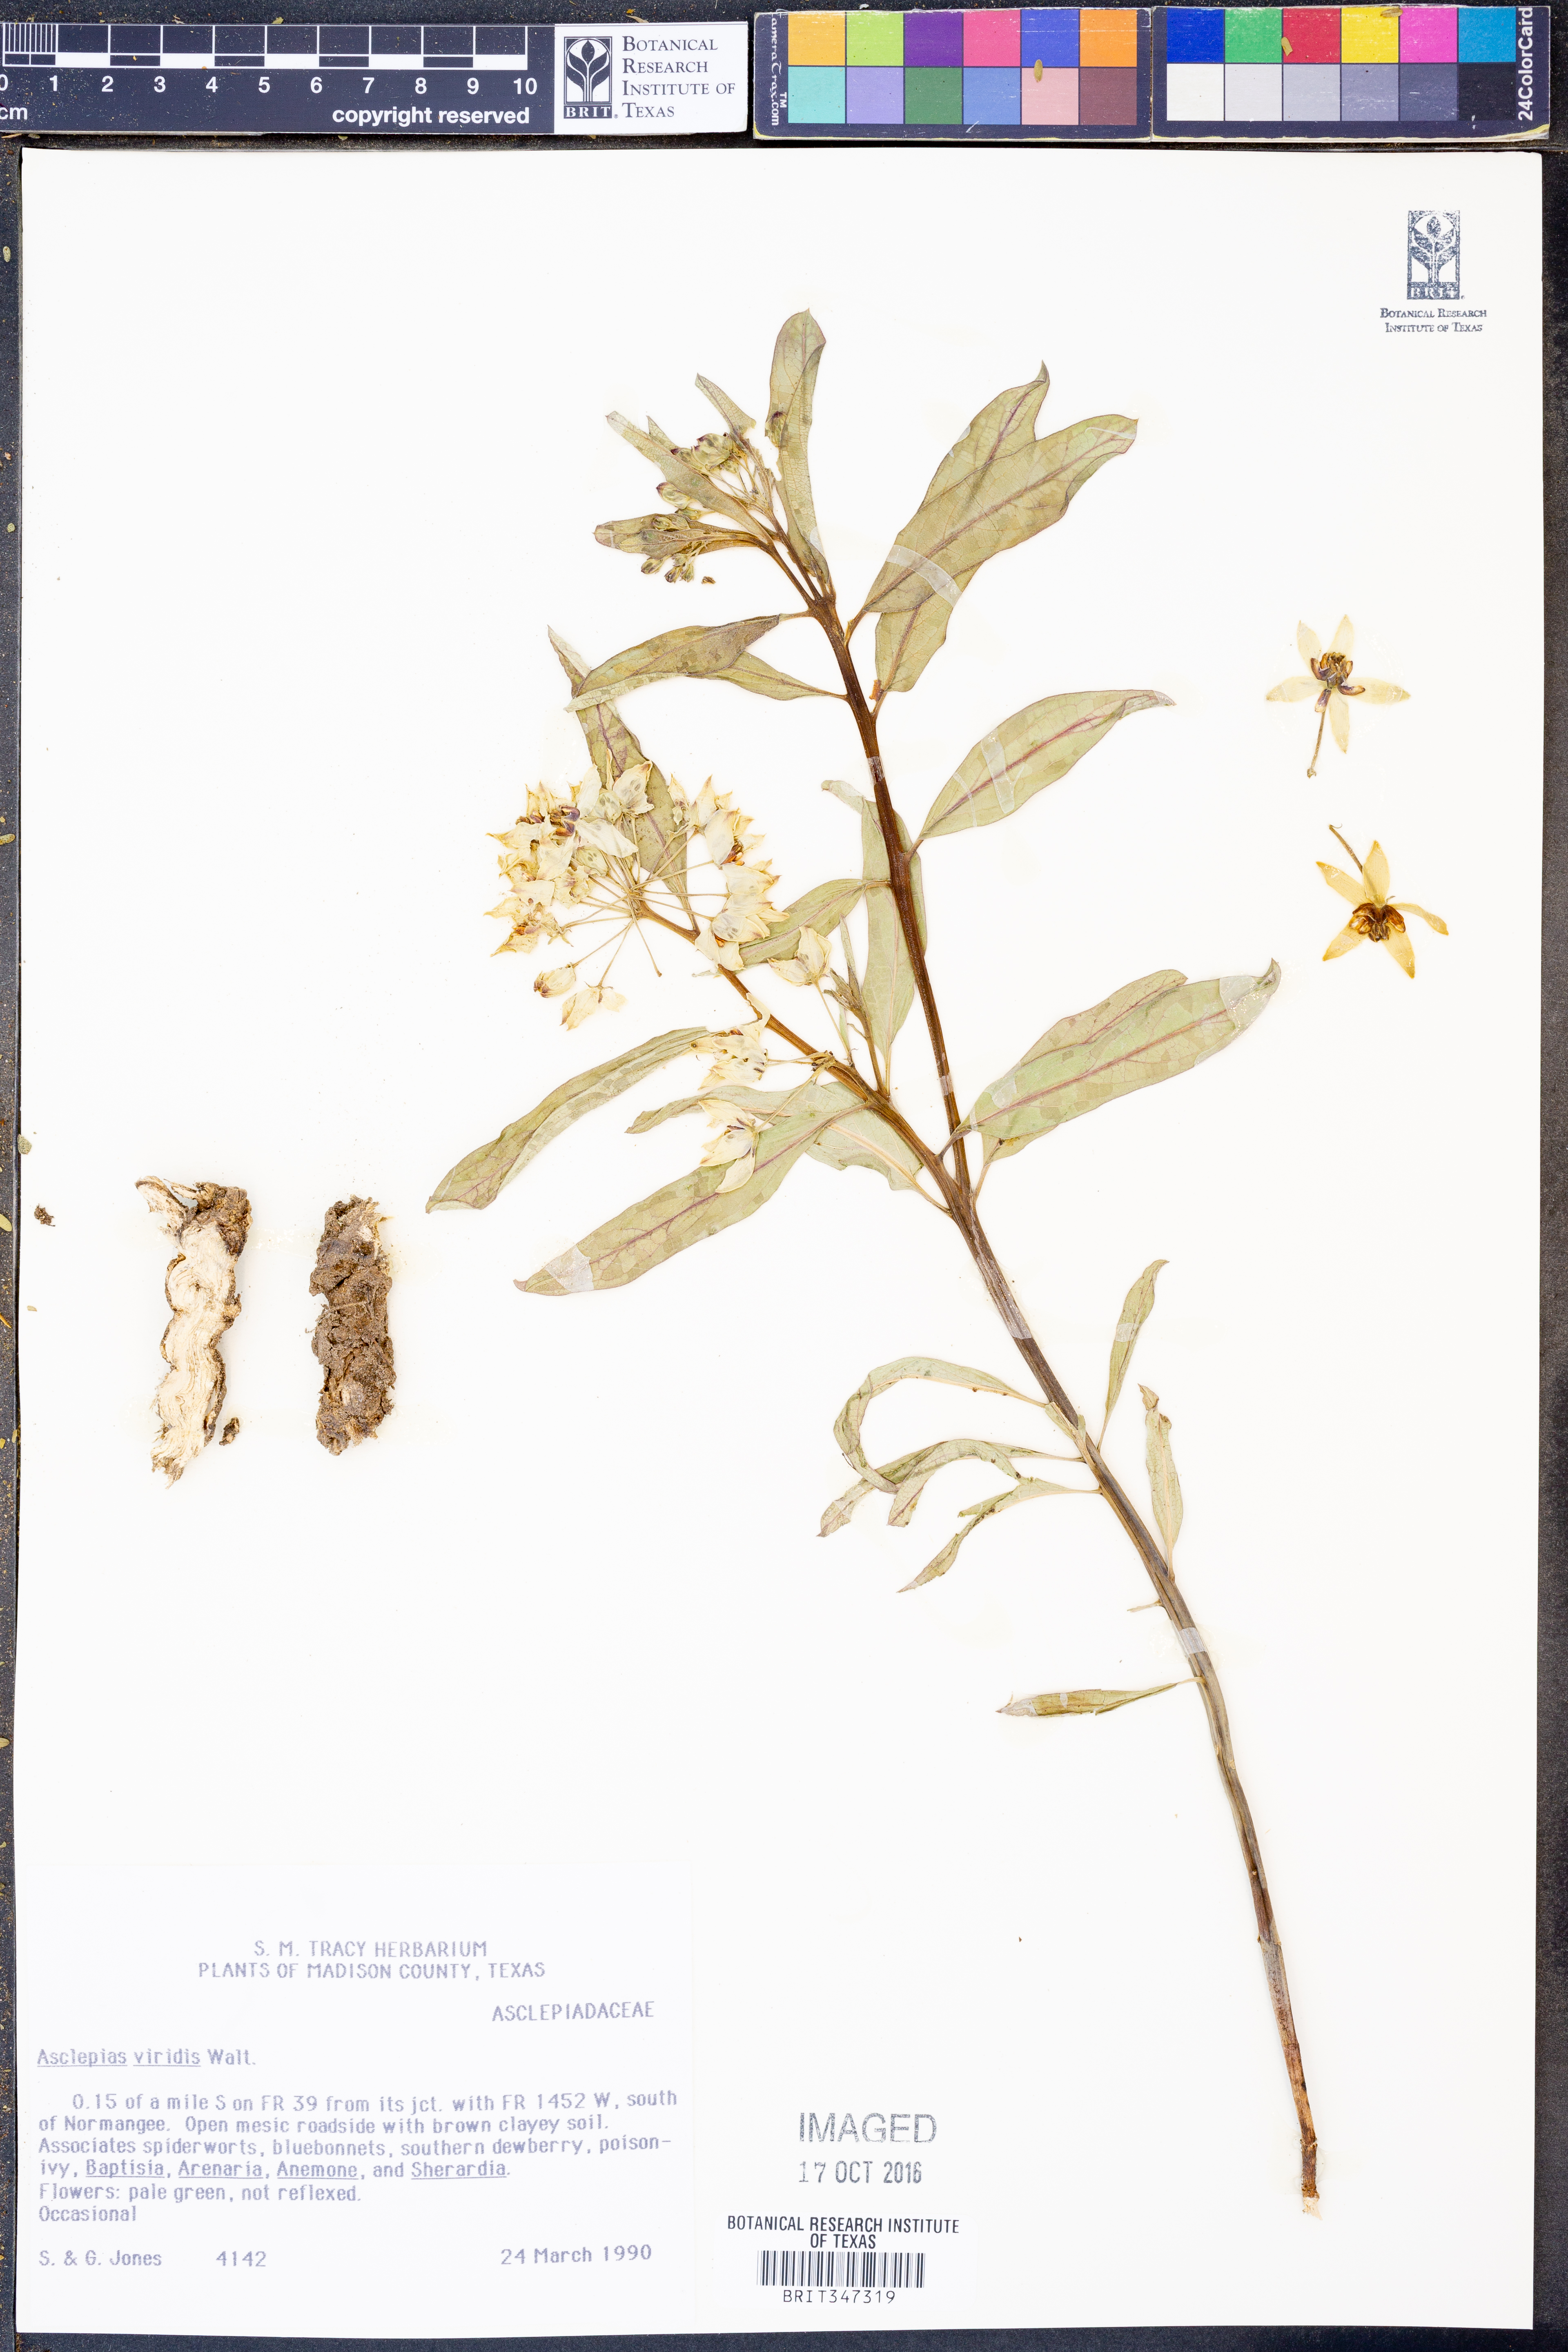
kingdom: Plantae
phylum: Tracheophyta
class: Magnoliopsida
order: Gentianales
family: Apocynaceae
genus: Asclepias
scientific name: Asclepias viridis
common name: Antelope-horns
